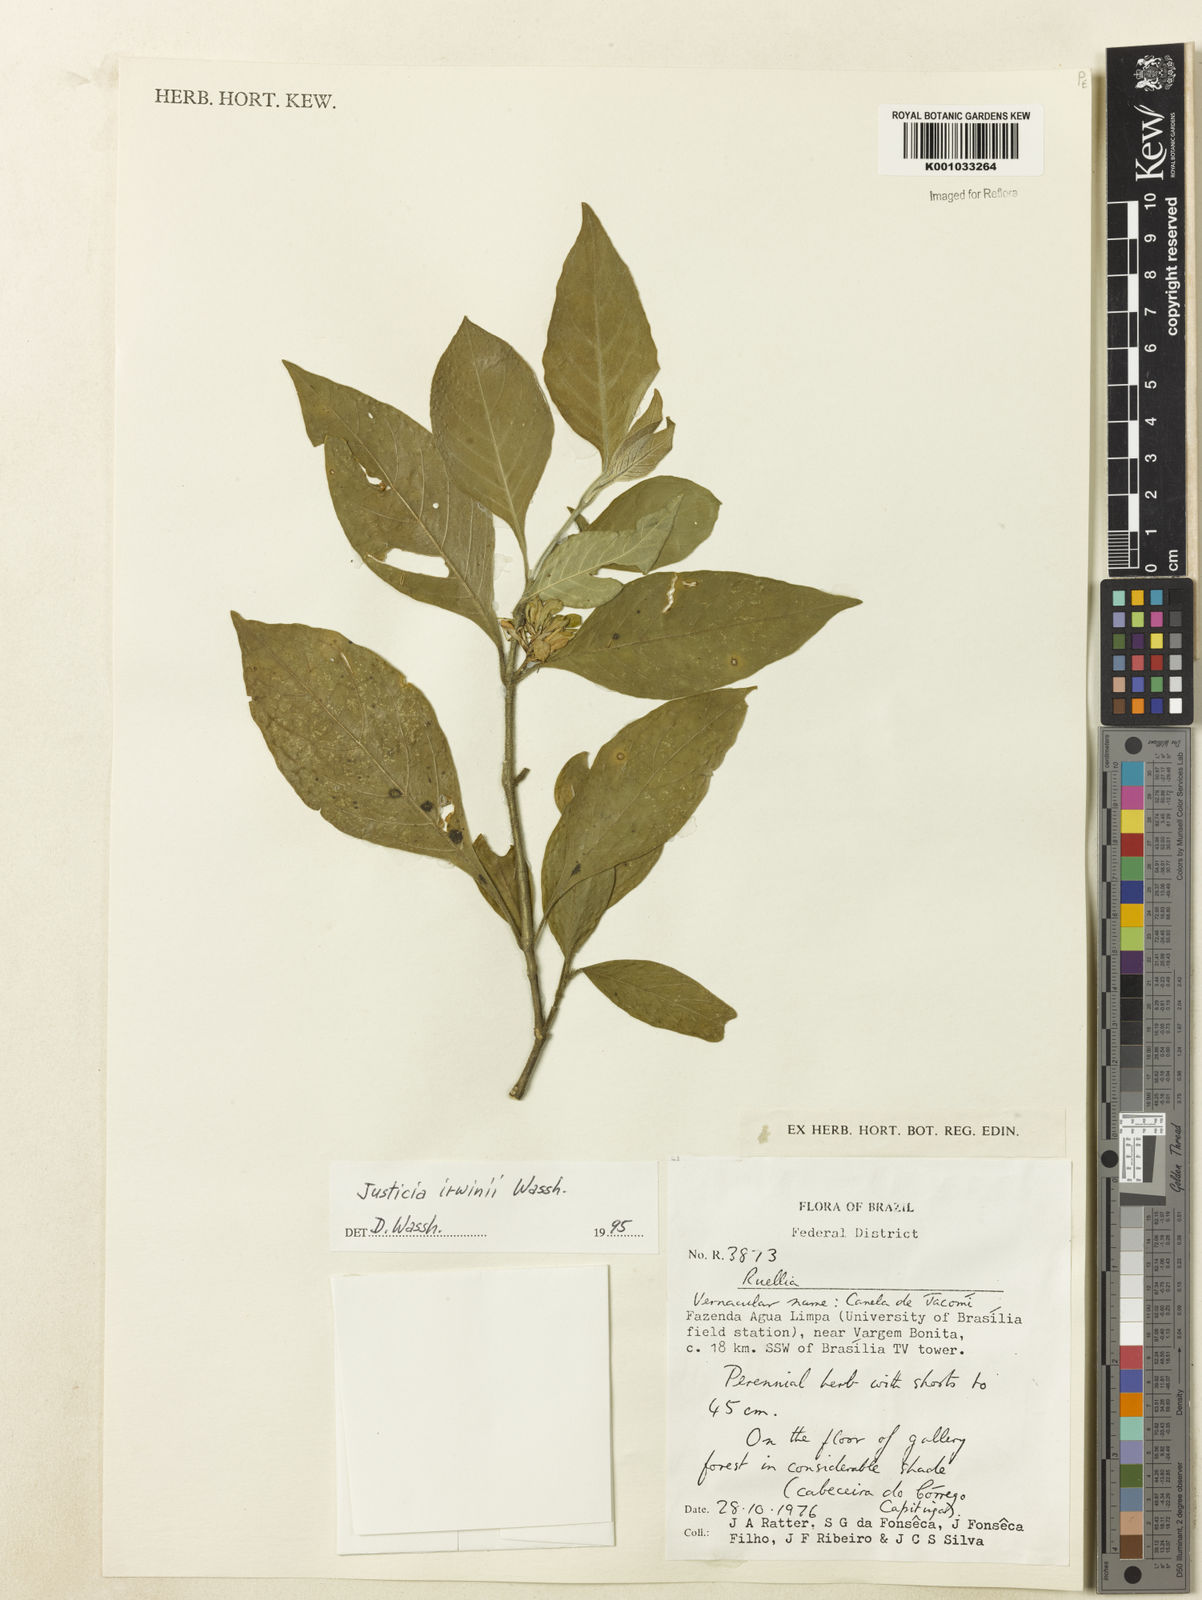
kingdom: Plantae
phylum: Tracheophyta
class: Magnoliopsida
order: Lamiales
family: Acanthaceae
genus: Justicia
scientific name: Justicia irwinii
